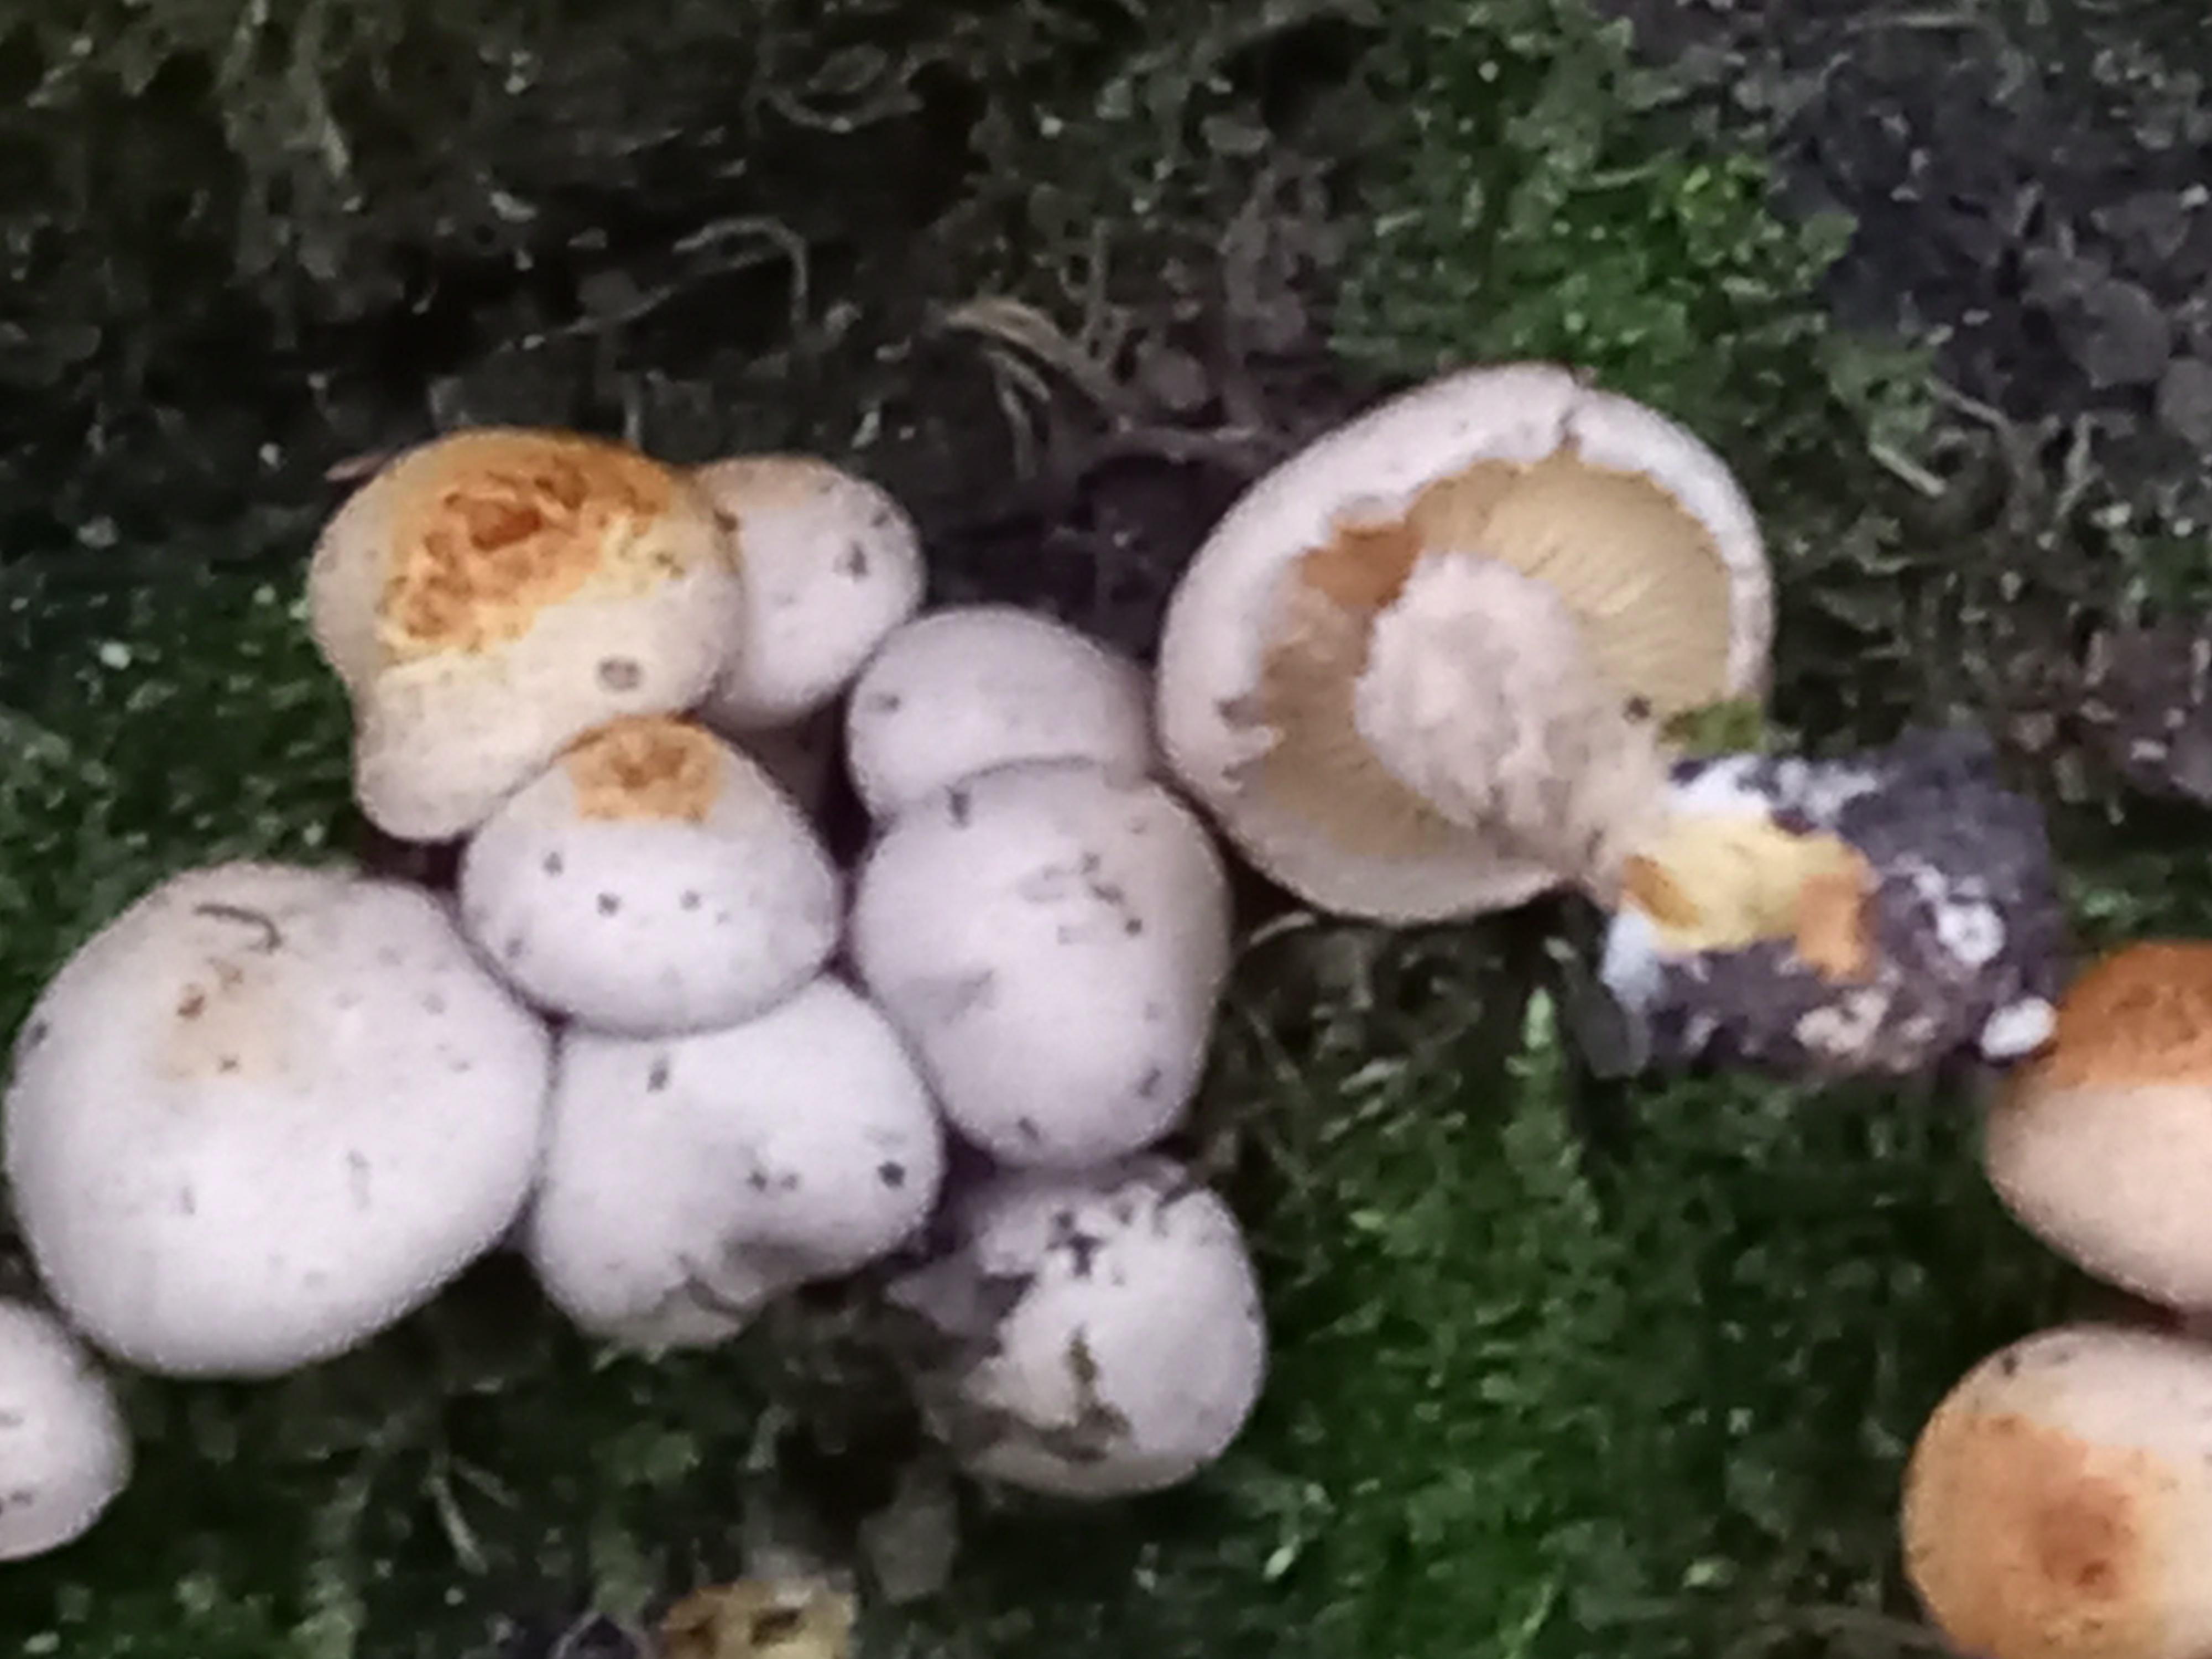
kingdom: Fungi
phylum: Basidiomycota
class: Agaricomycetes
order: Agaricales
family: Strophariaceae
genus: Pholiota
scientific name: Pholiota gummosa
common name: grøngul skælhat
